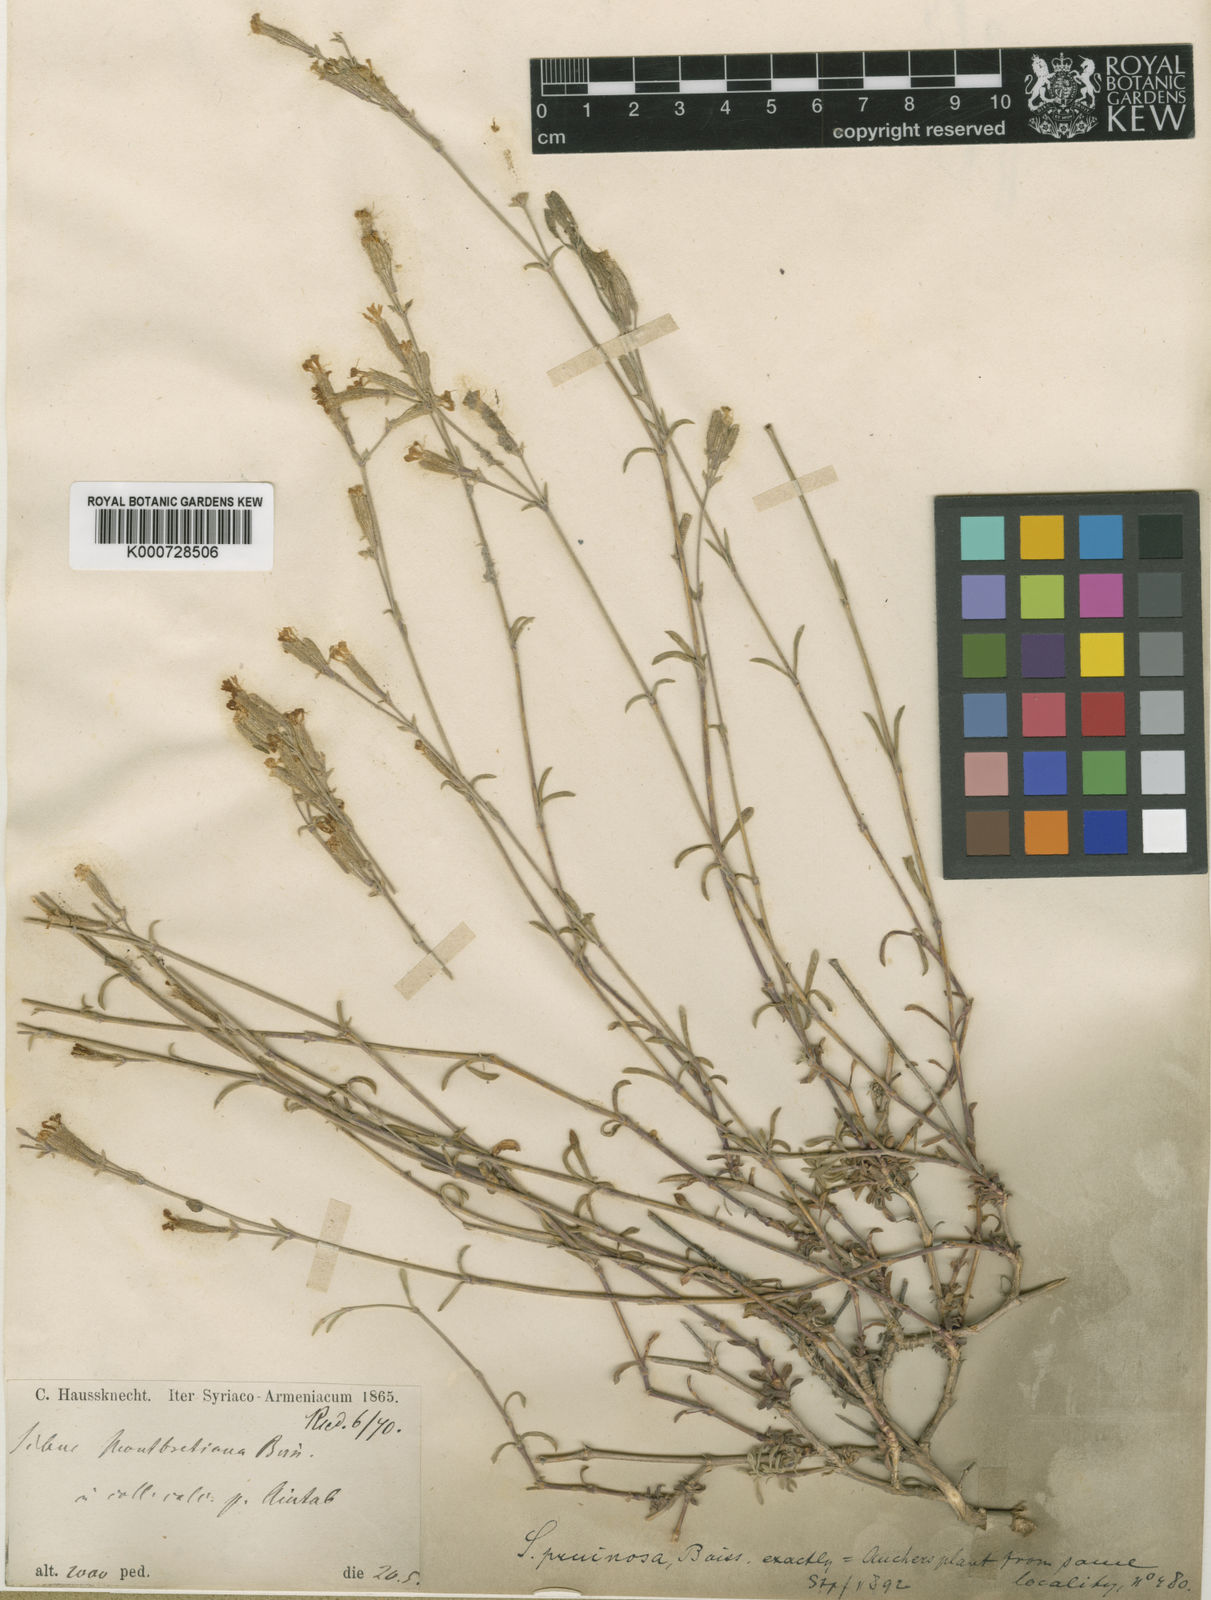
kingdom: Plantae
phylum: Tracheophyta
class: Magnoliopsida
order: Caryophyllales
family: Caryophyllaceae
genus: Silene
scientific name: Silene montbretiana
